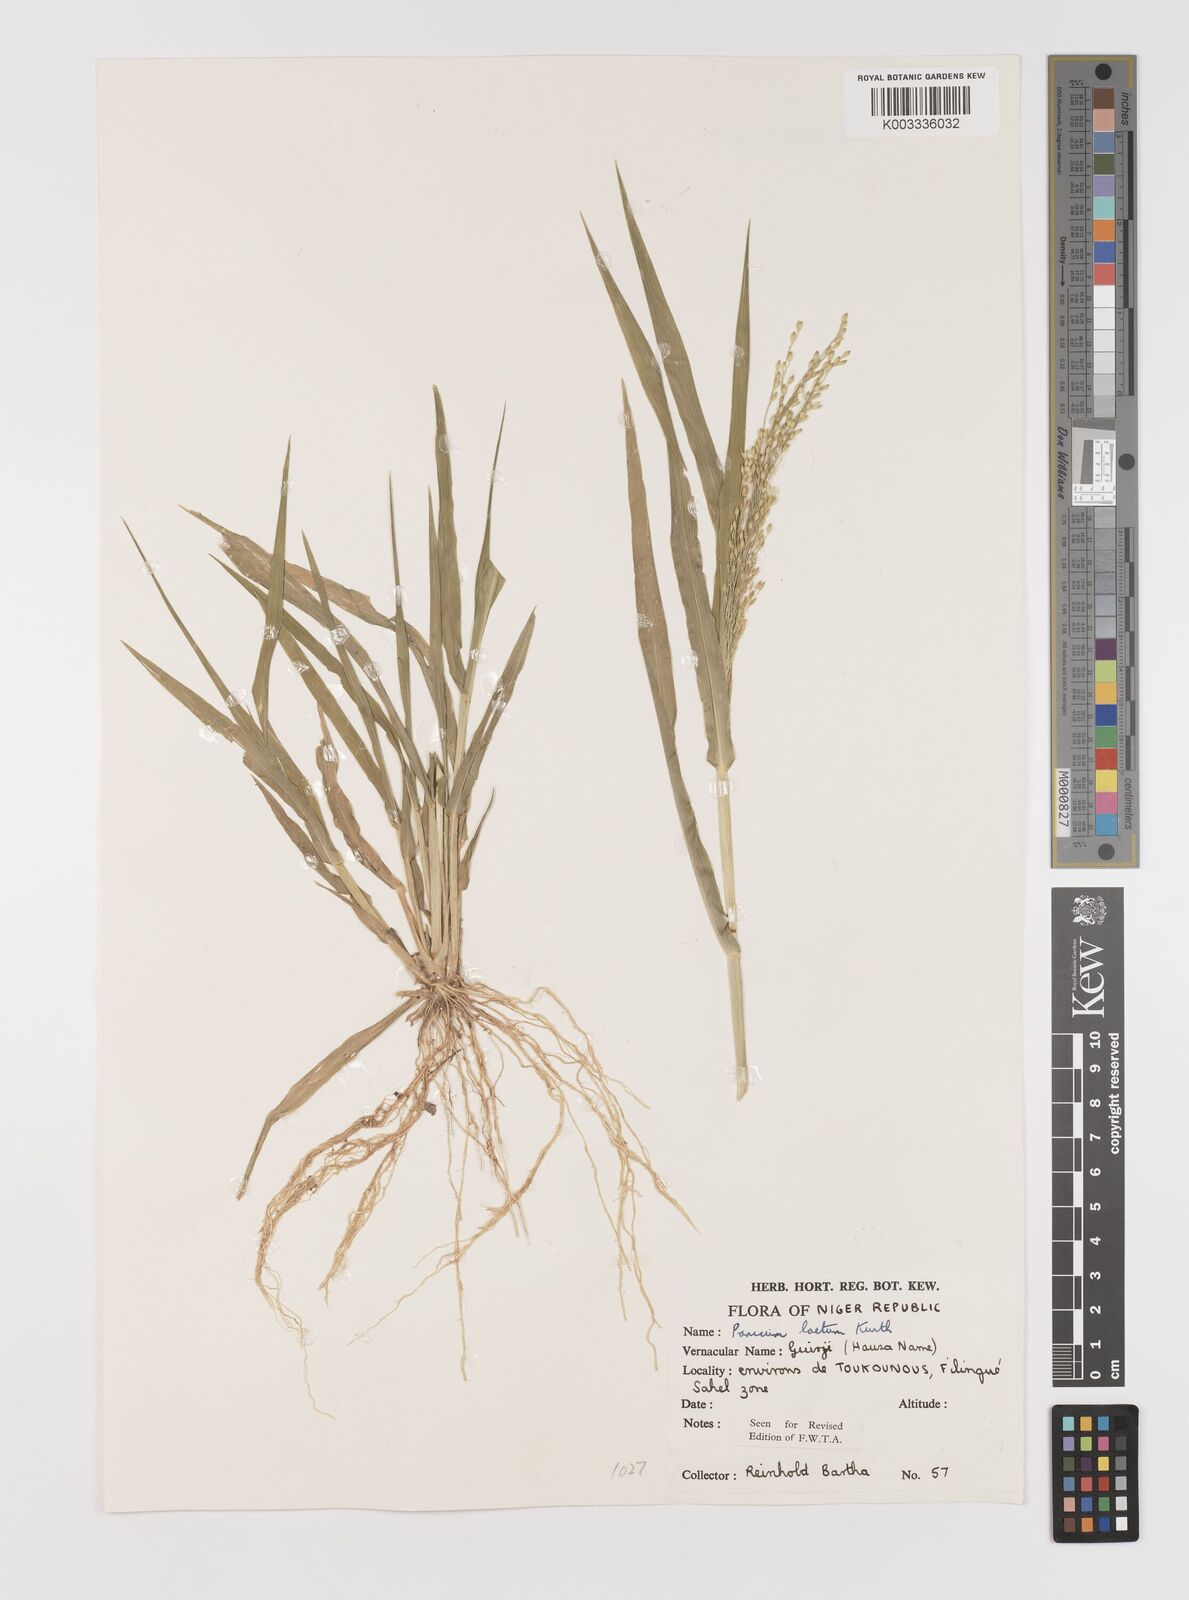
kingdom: Plantae
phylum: Tracheophyta
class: Liliopsida
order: Poales
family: Poaceae
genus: Panicum
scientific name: Panicum laetum
